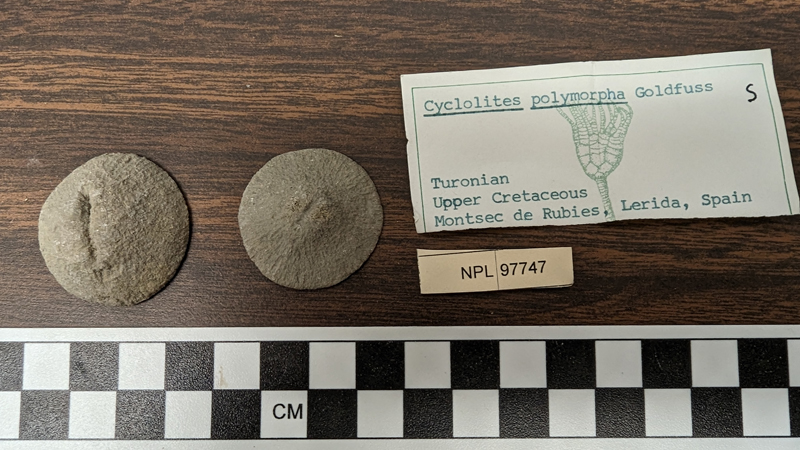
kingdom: Animalia
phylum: Cnidaria
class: Anthozoa
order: Scleractinia
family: Cunnolitidae
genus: Cyclolites
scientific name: Cyclolites polymorphus
